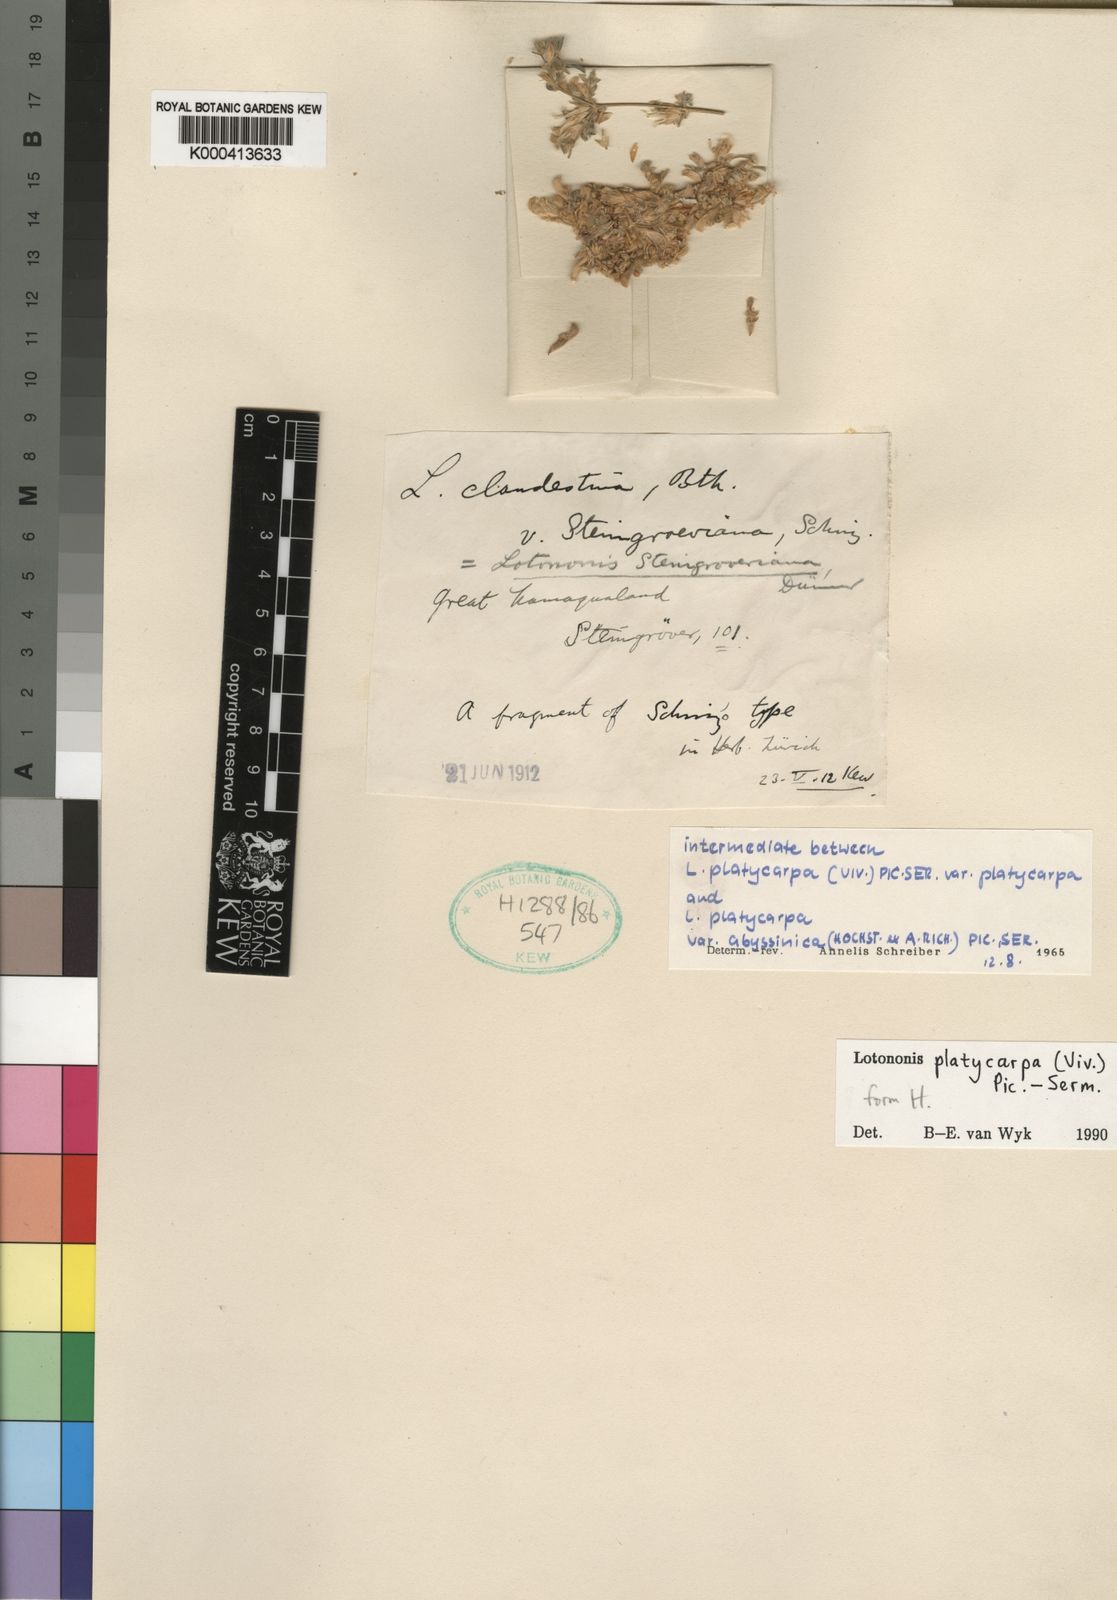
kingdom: Plantae
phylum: Tracheophyta
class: Magnoliopsida
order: Fabales
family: Fabaceae
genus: Leobordea
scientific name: Leobordea platycarpa
